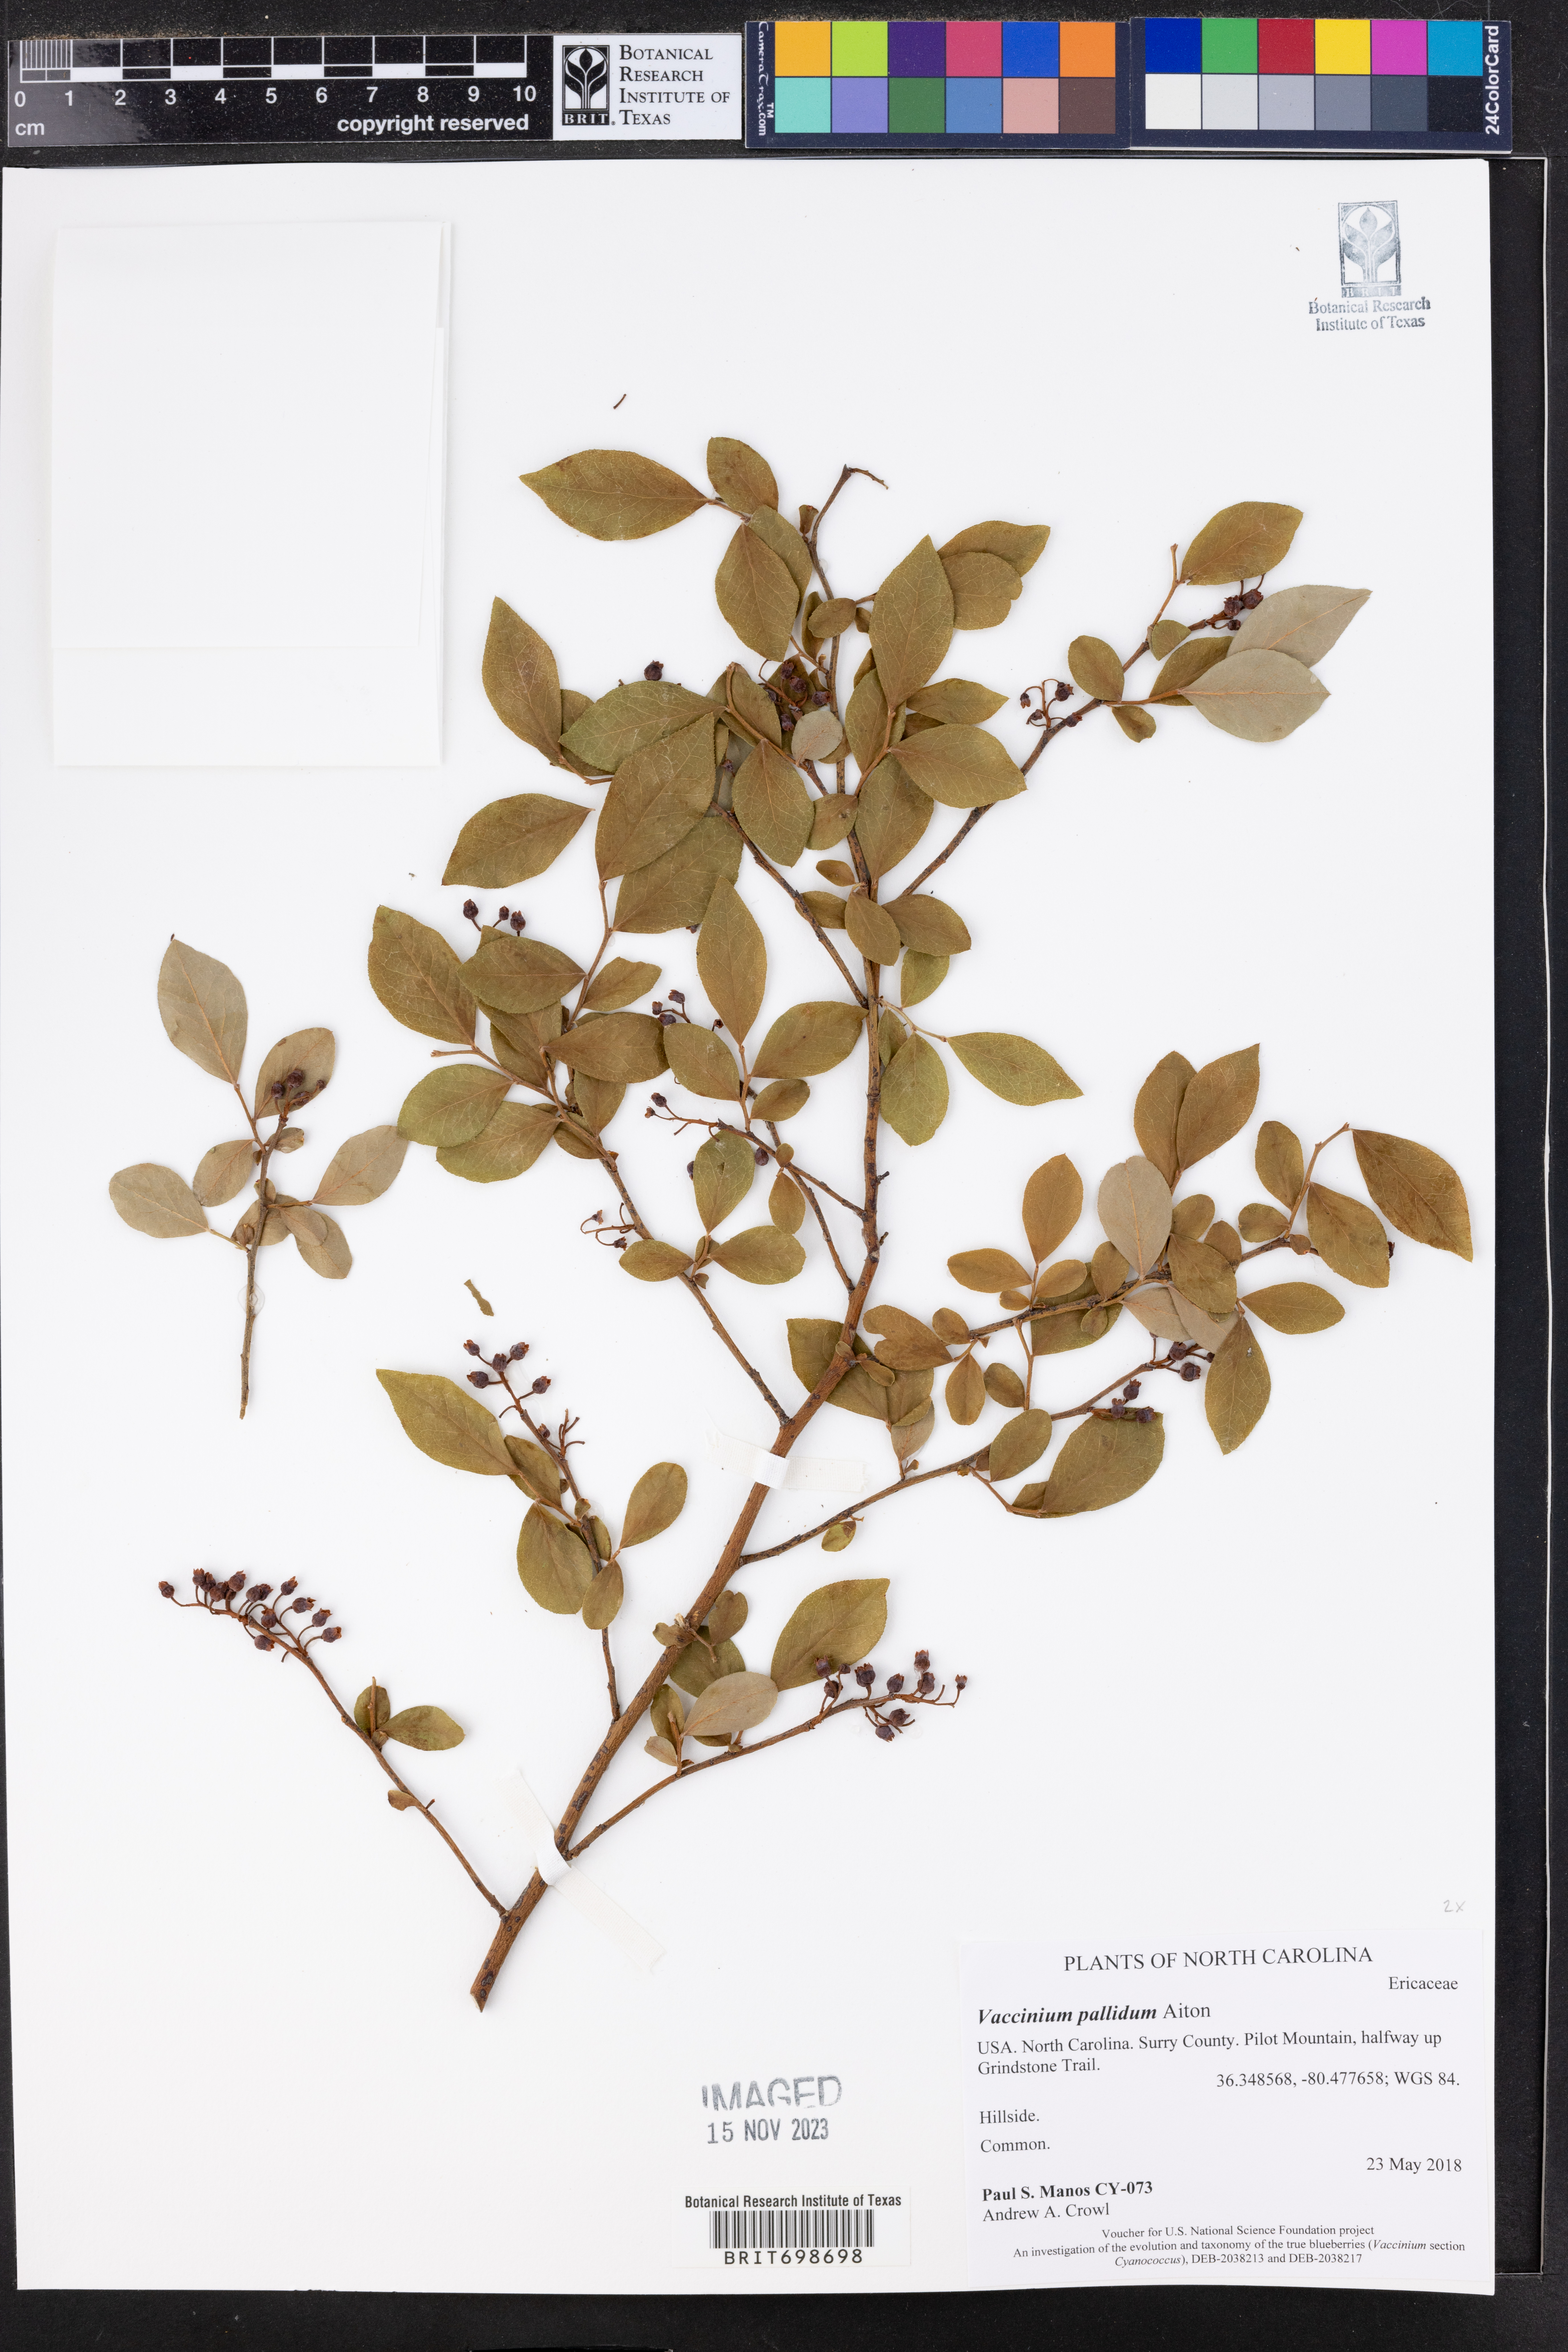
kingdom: Plantae
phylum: Tracheophyta
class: Magnoliopsida
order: Ericales
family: Ericaceae
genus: Vaccinium
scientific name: Vaccinium pallidum
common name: Blue ridge blueberry
